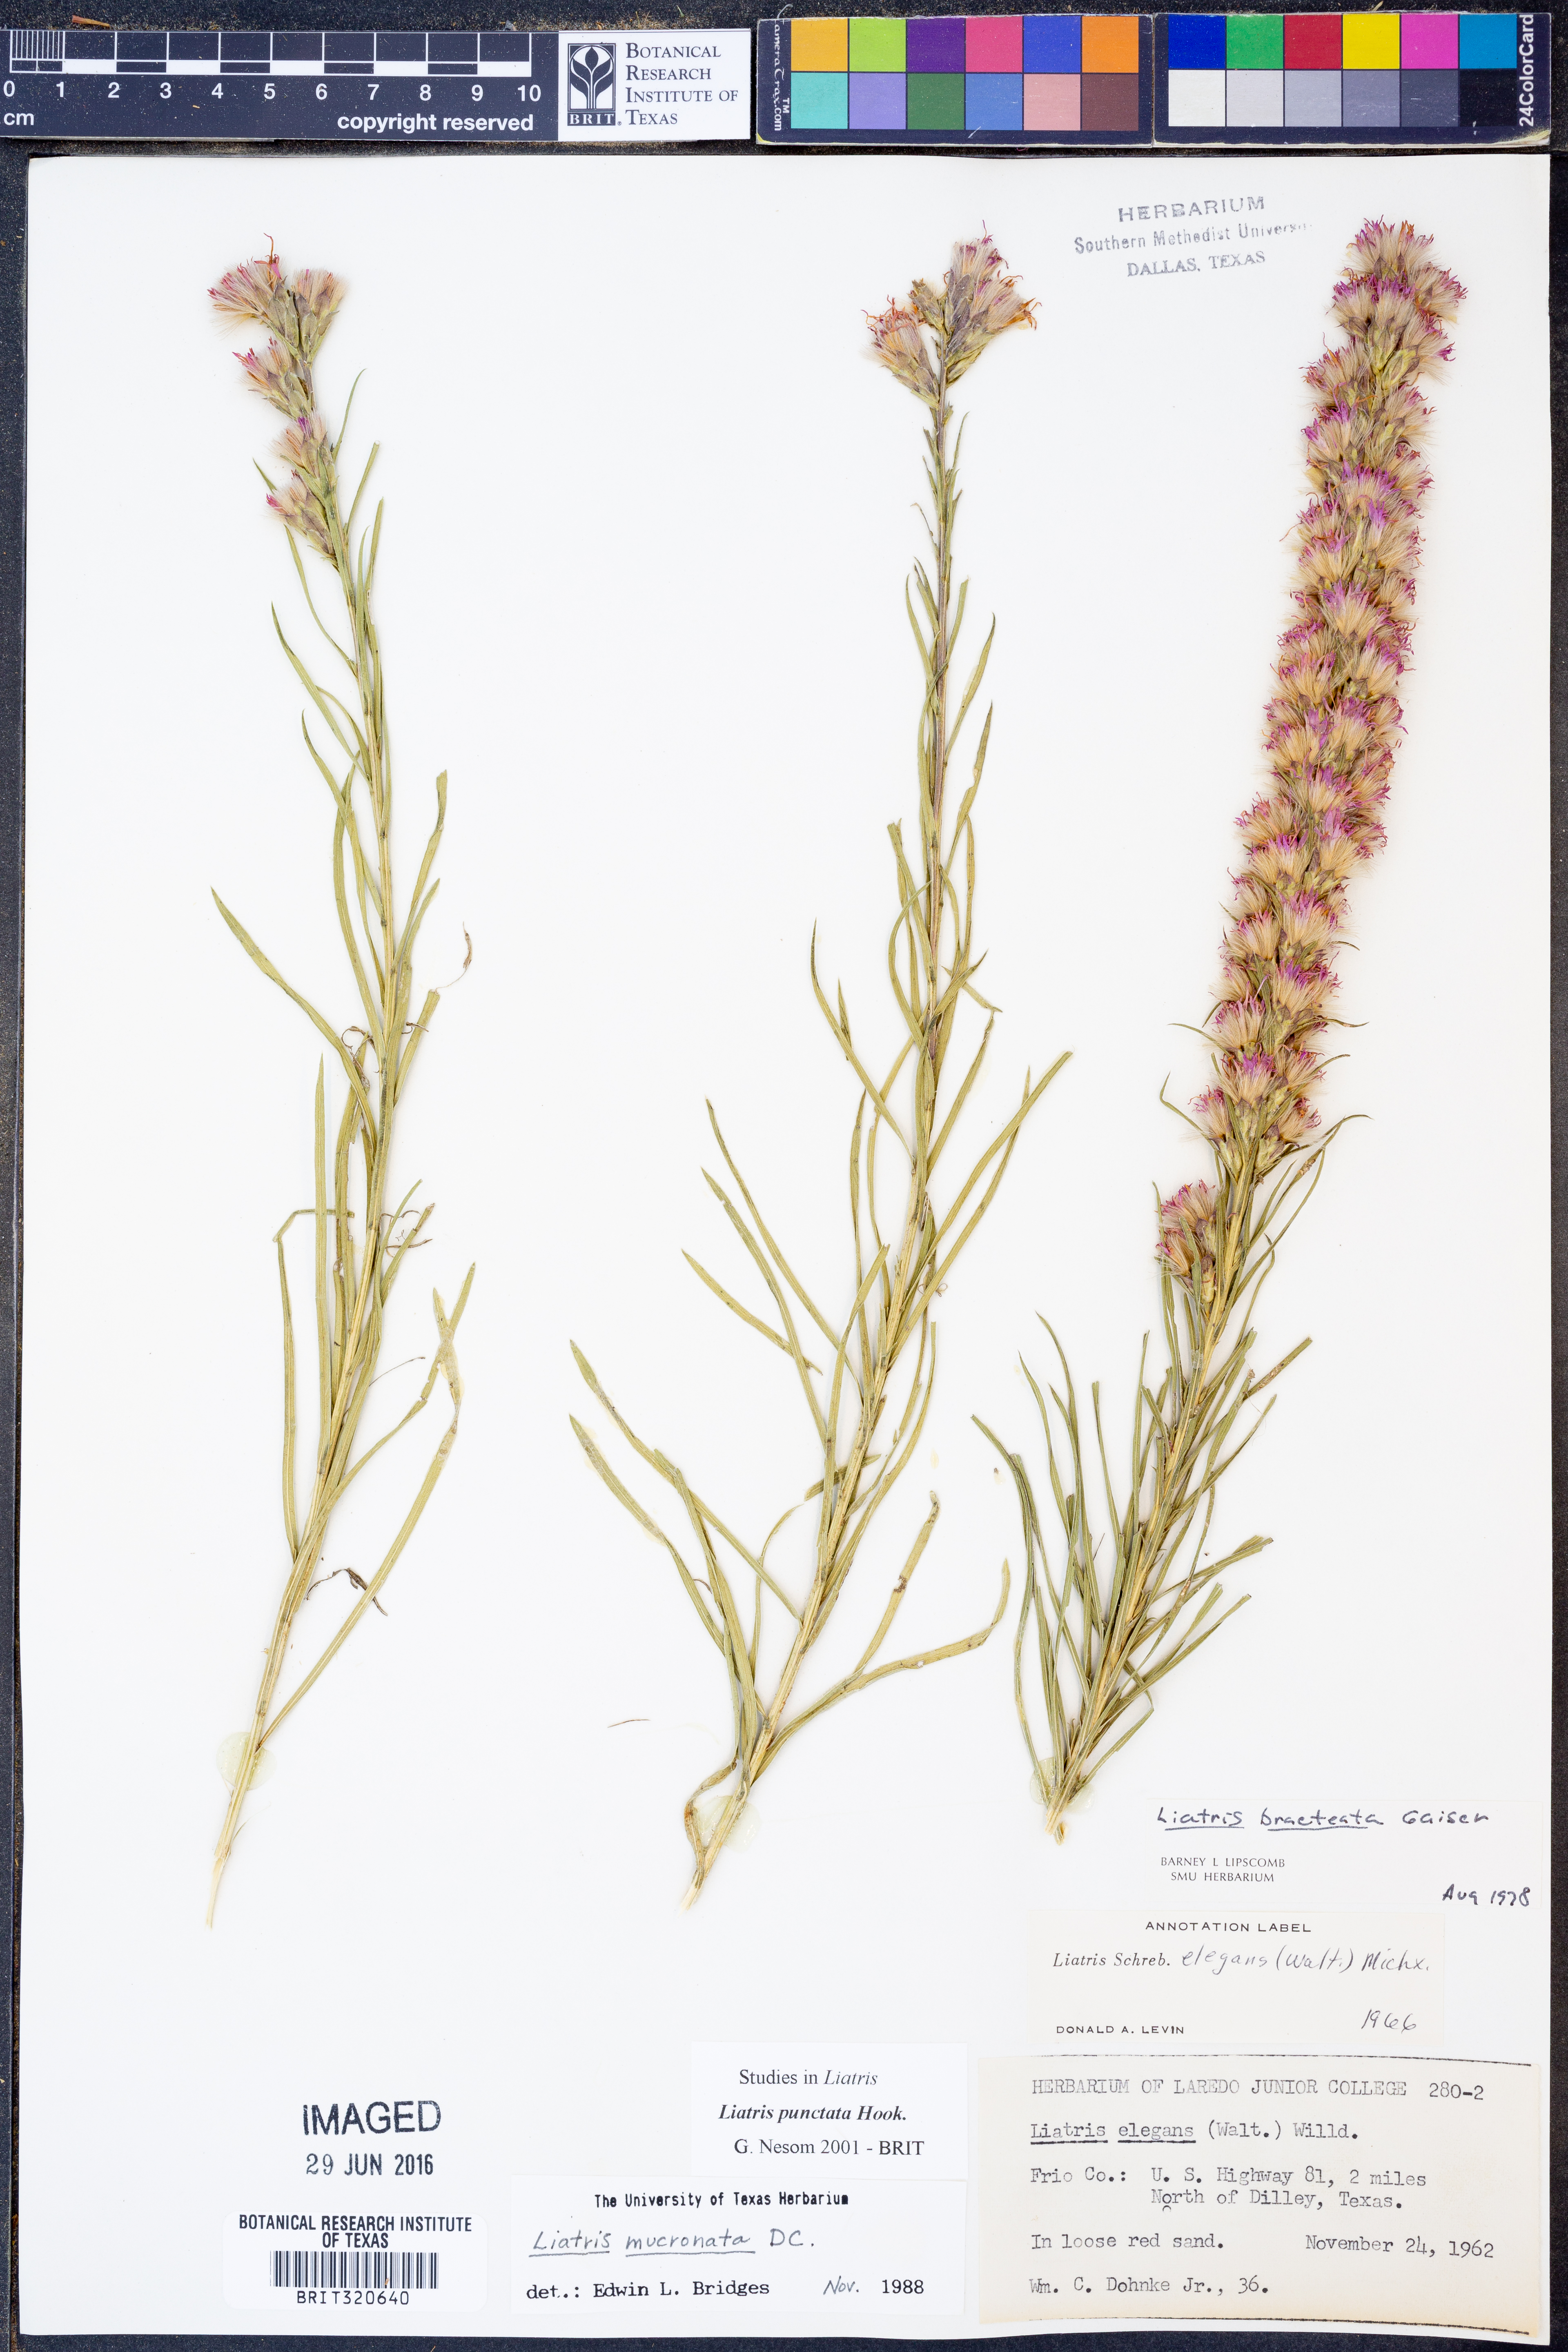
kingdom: Plantae
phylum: Tracheophyta
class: Magnoliopsida
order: Asterales
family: Asteraceae
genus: Liatris
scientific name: Liatris punctata
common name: Dotted gayfeather
